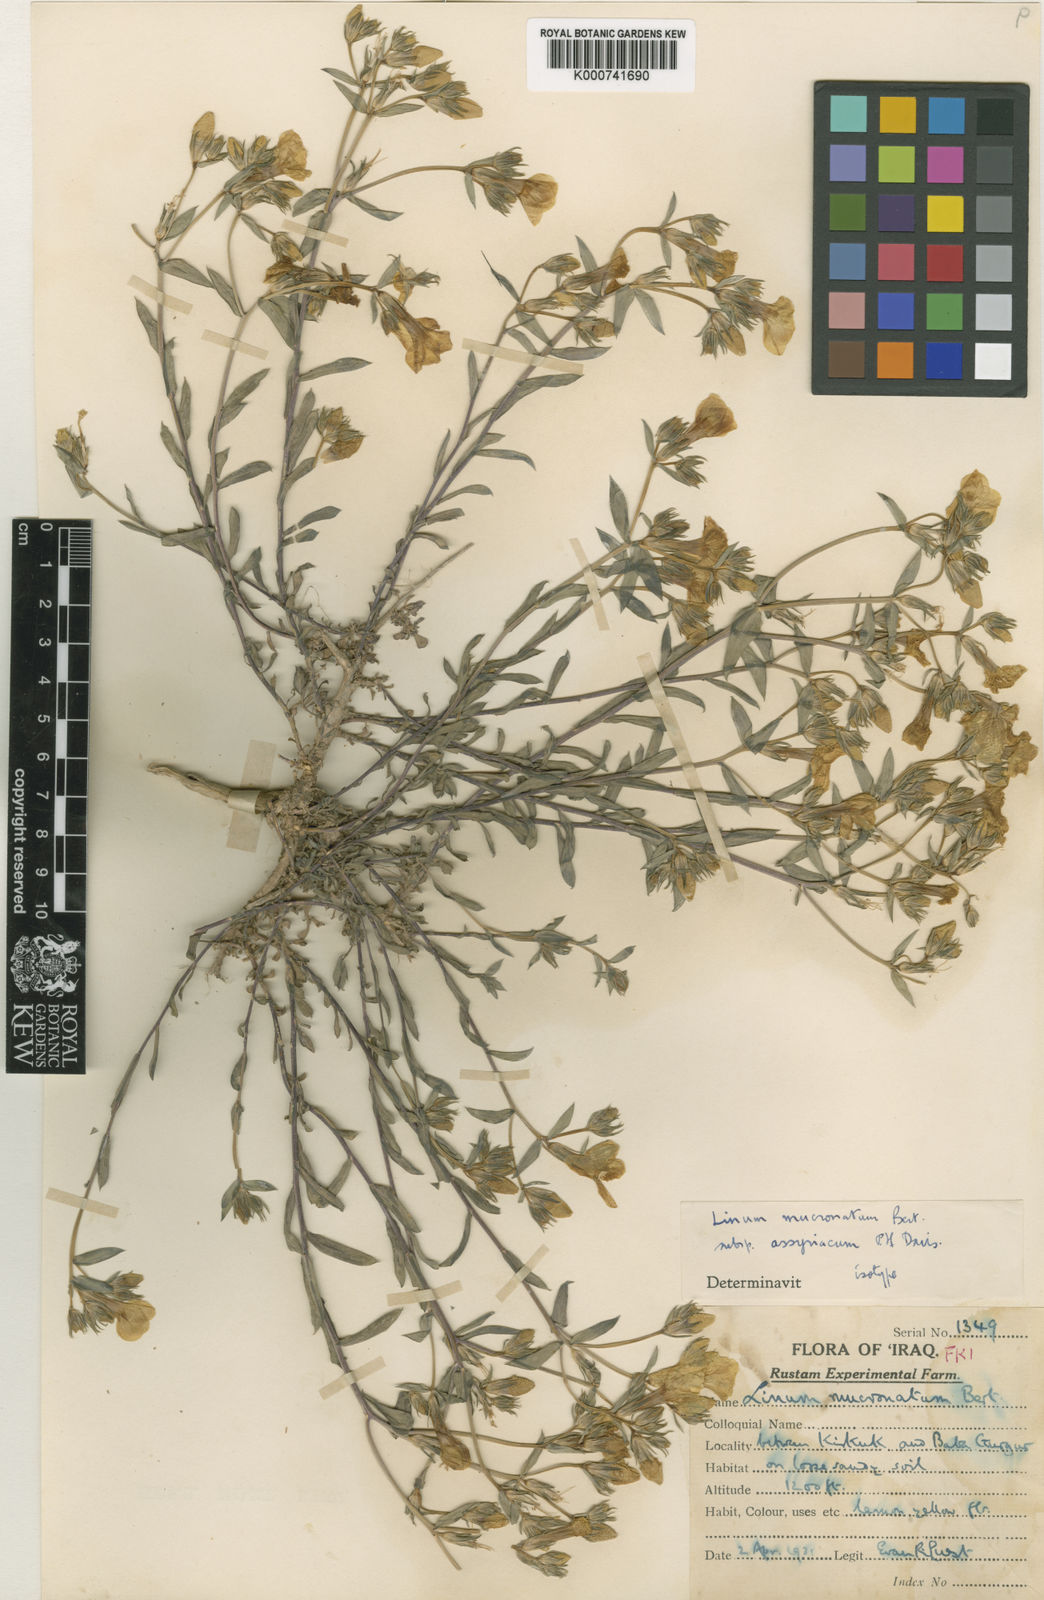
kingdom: Plantae
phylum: Tracheophyta
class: Magnoliopsida
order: Malpighiales
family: Linaceae
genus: Linum
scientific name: Linum mucronatum
